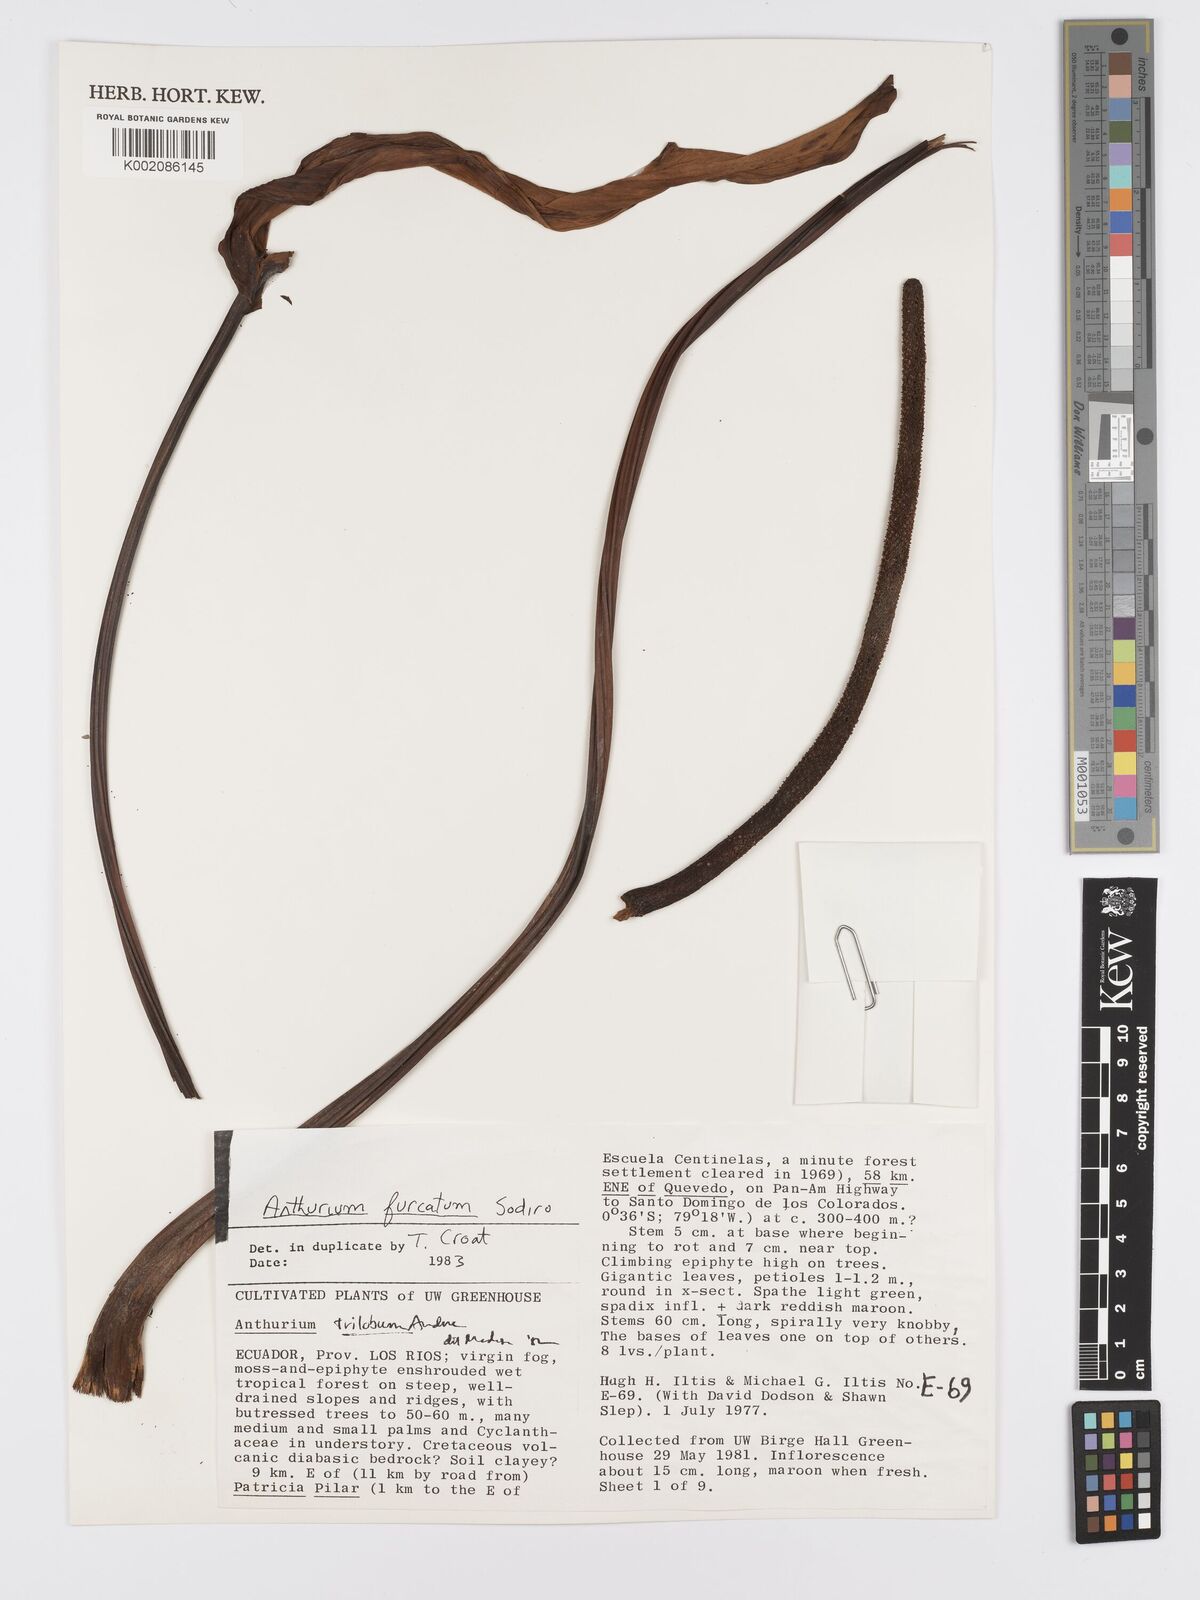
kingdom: Plantae
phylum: Tracheophyta
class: Liliopsida
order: Alismatales
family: Araceae
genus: Anthurium
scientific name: Anthurium furcatum
